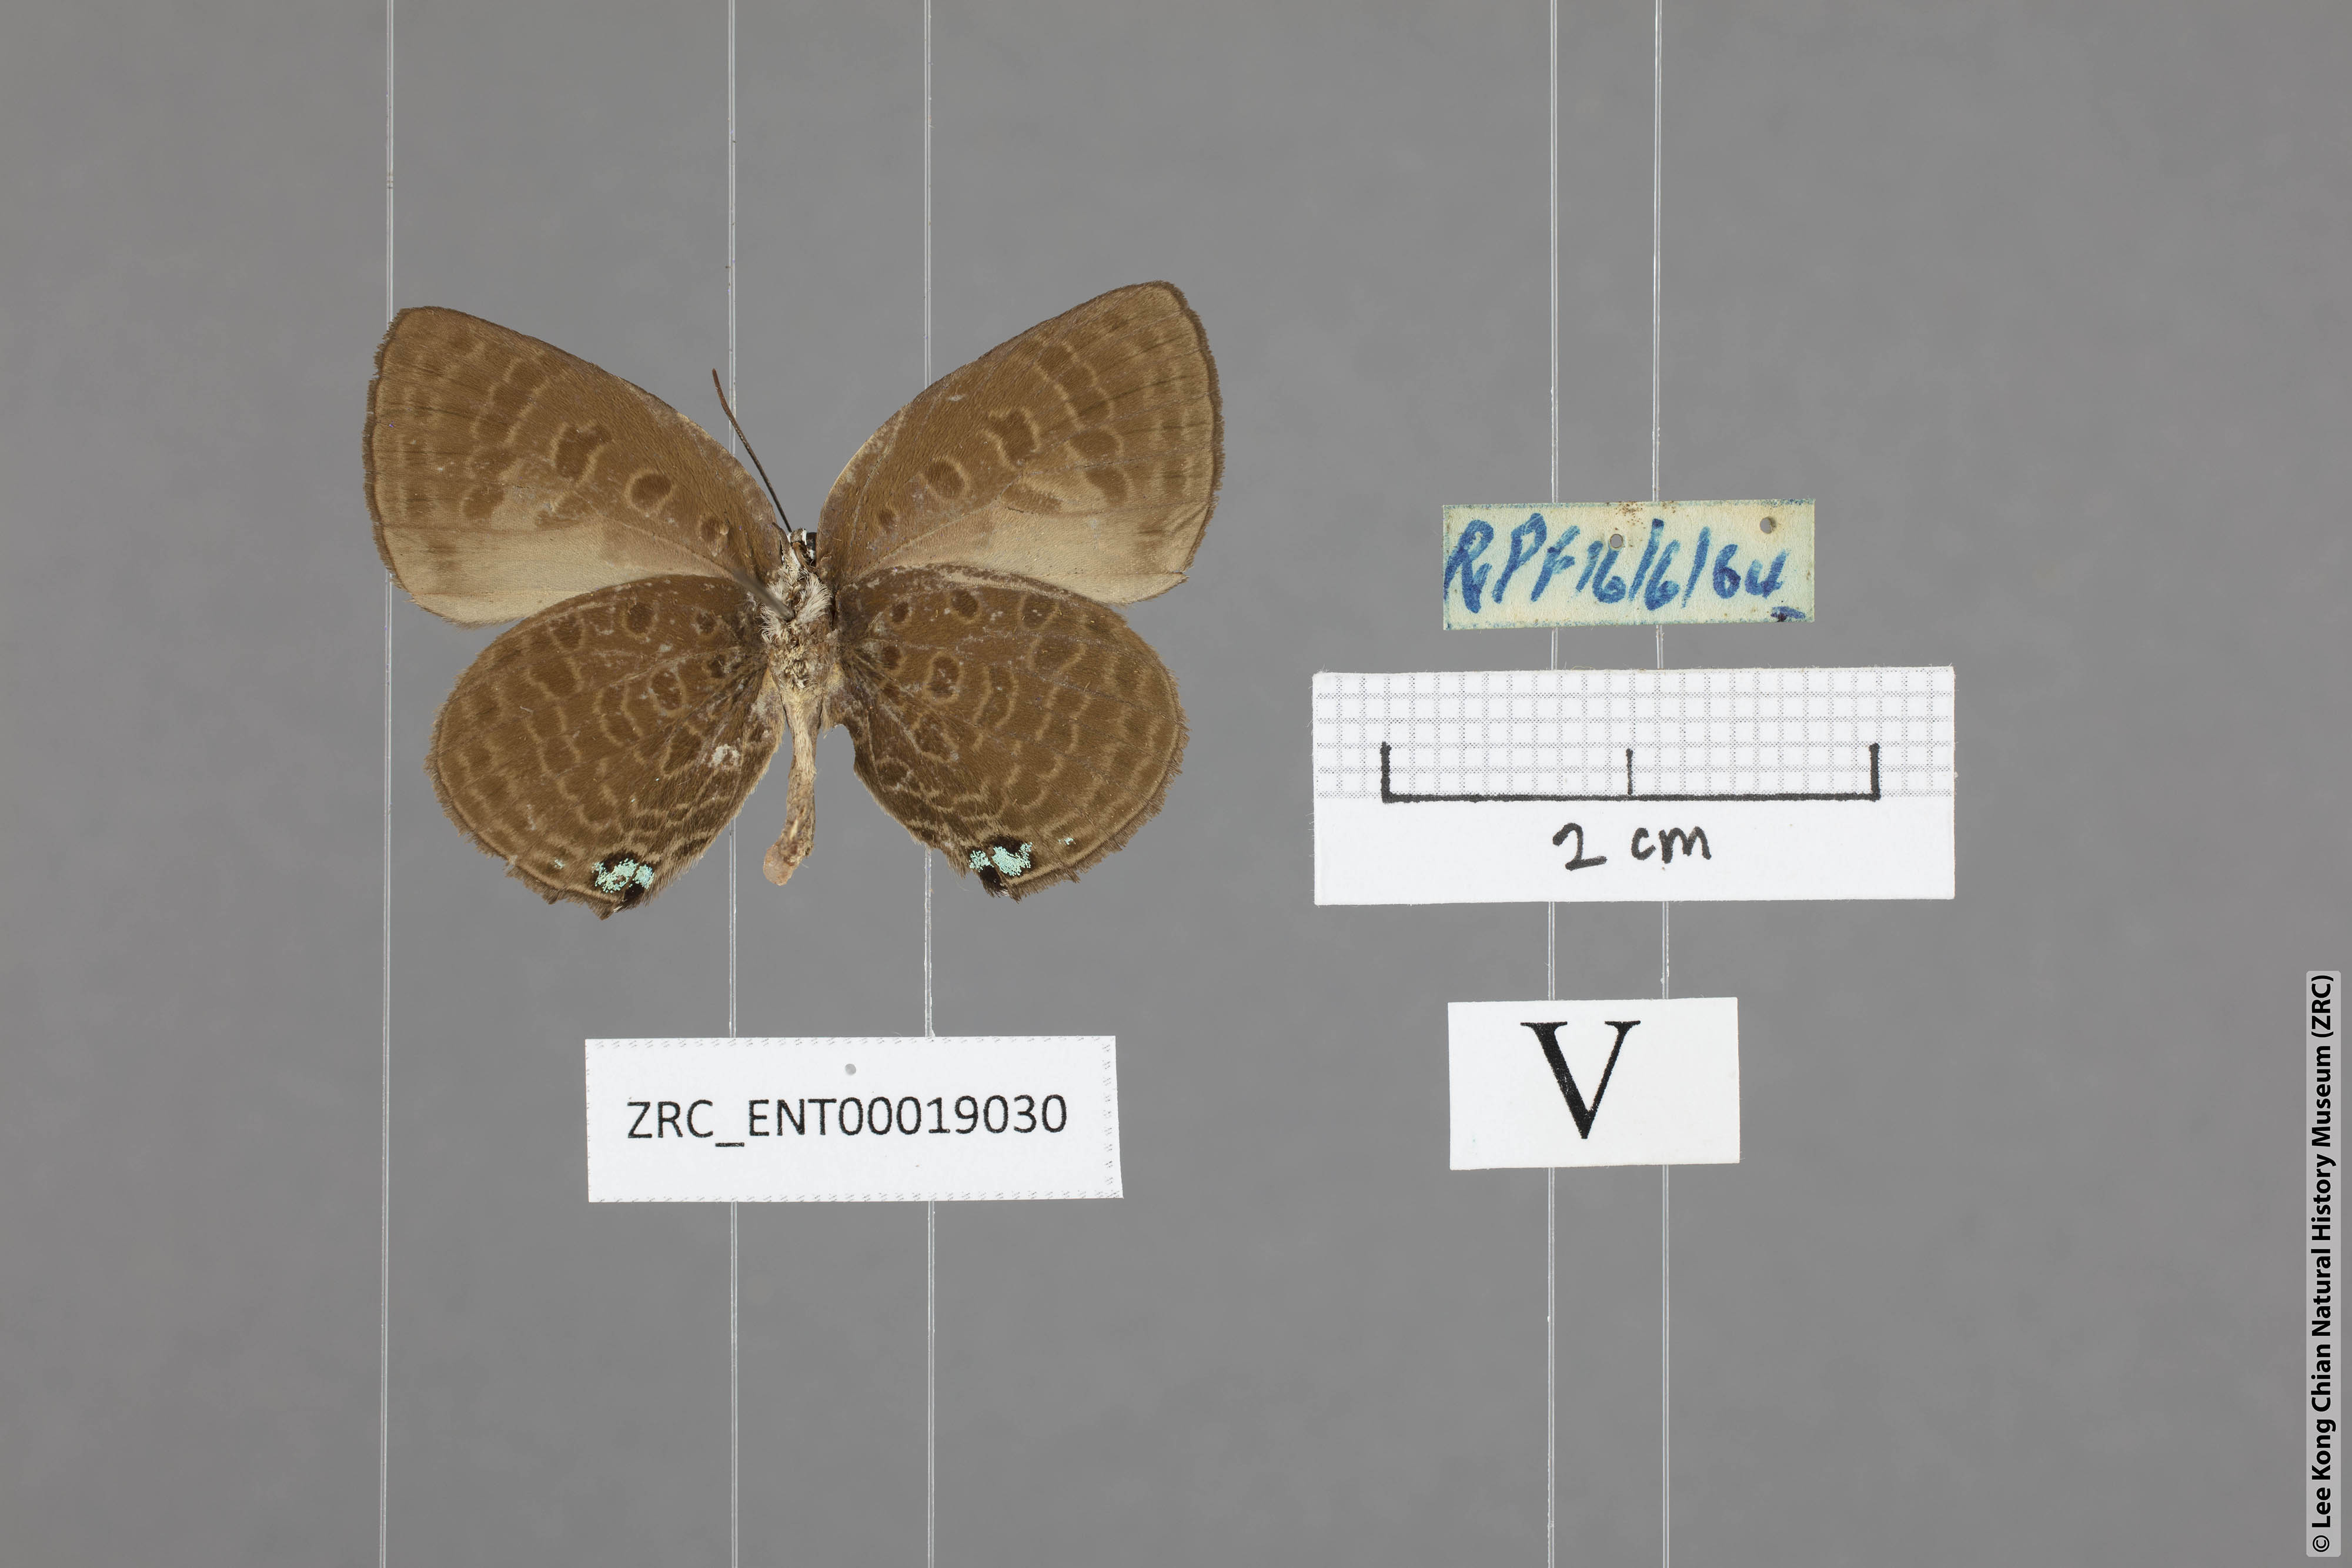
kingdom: Animalia
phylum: Arthropoda
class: Insecta
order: Lepidoptera
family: Lycaenidae
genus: Arhopala
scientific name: Arhopala agesilaus
